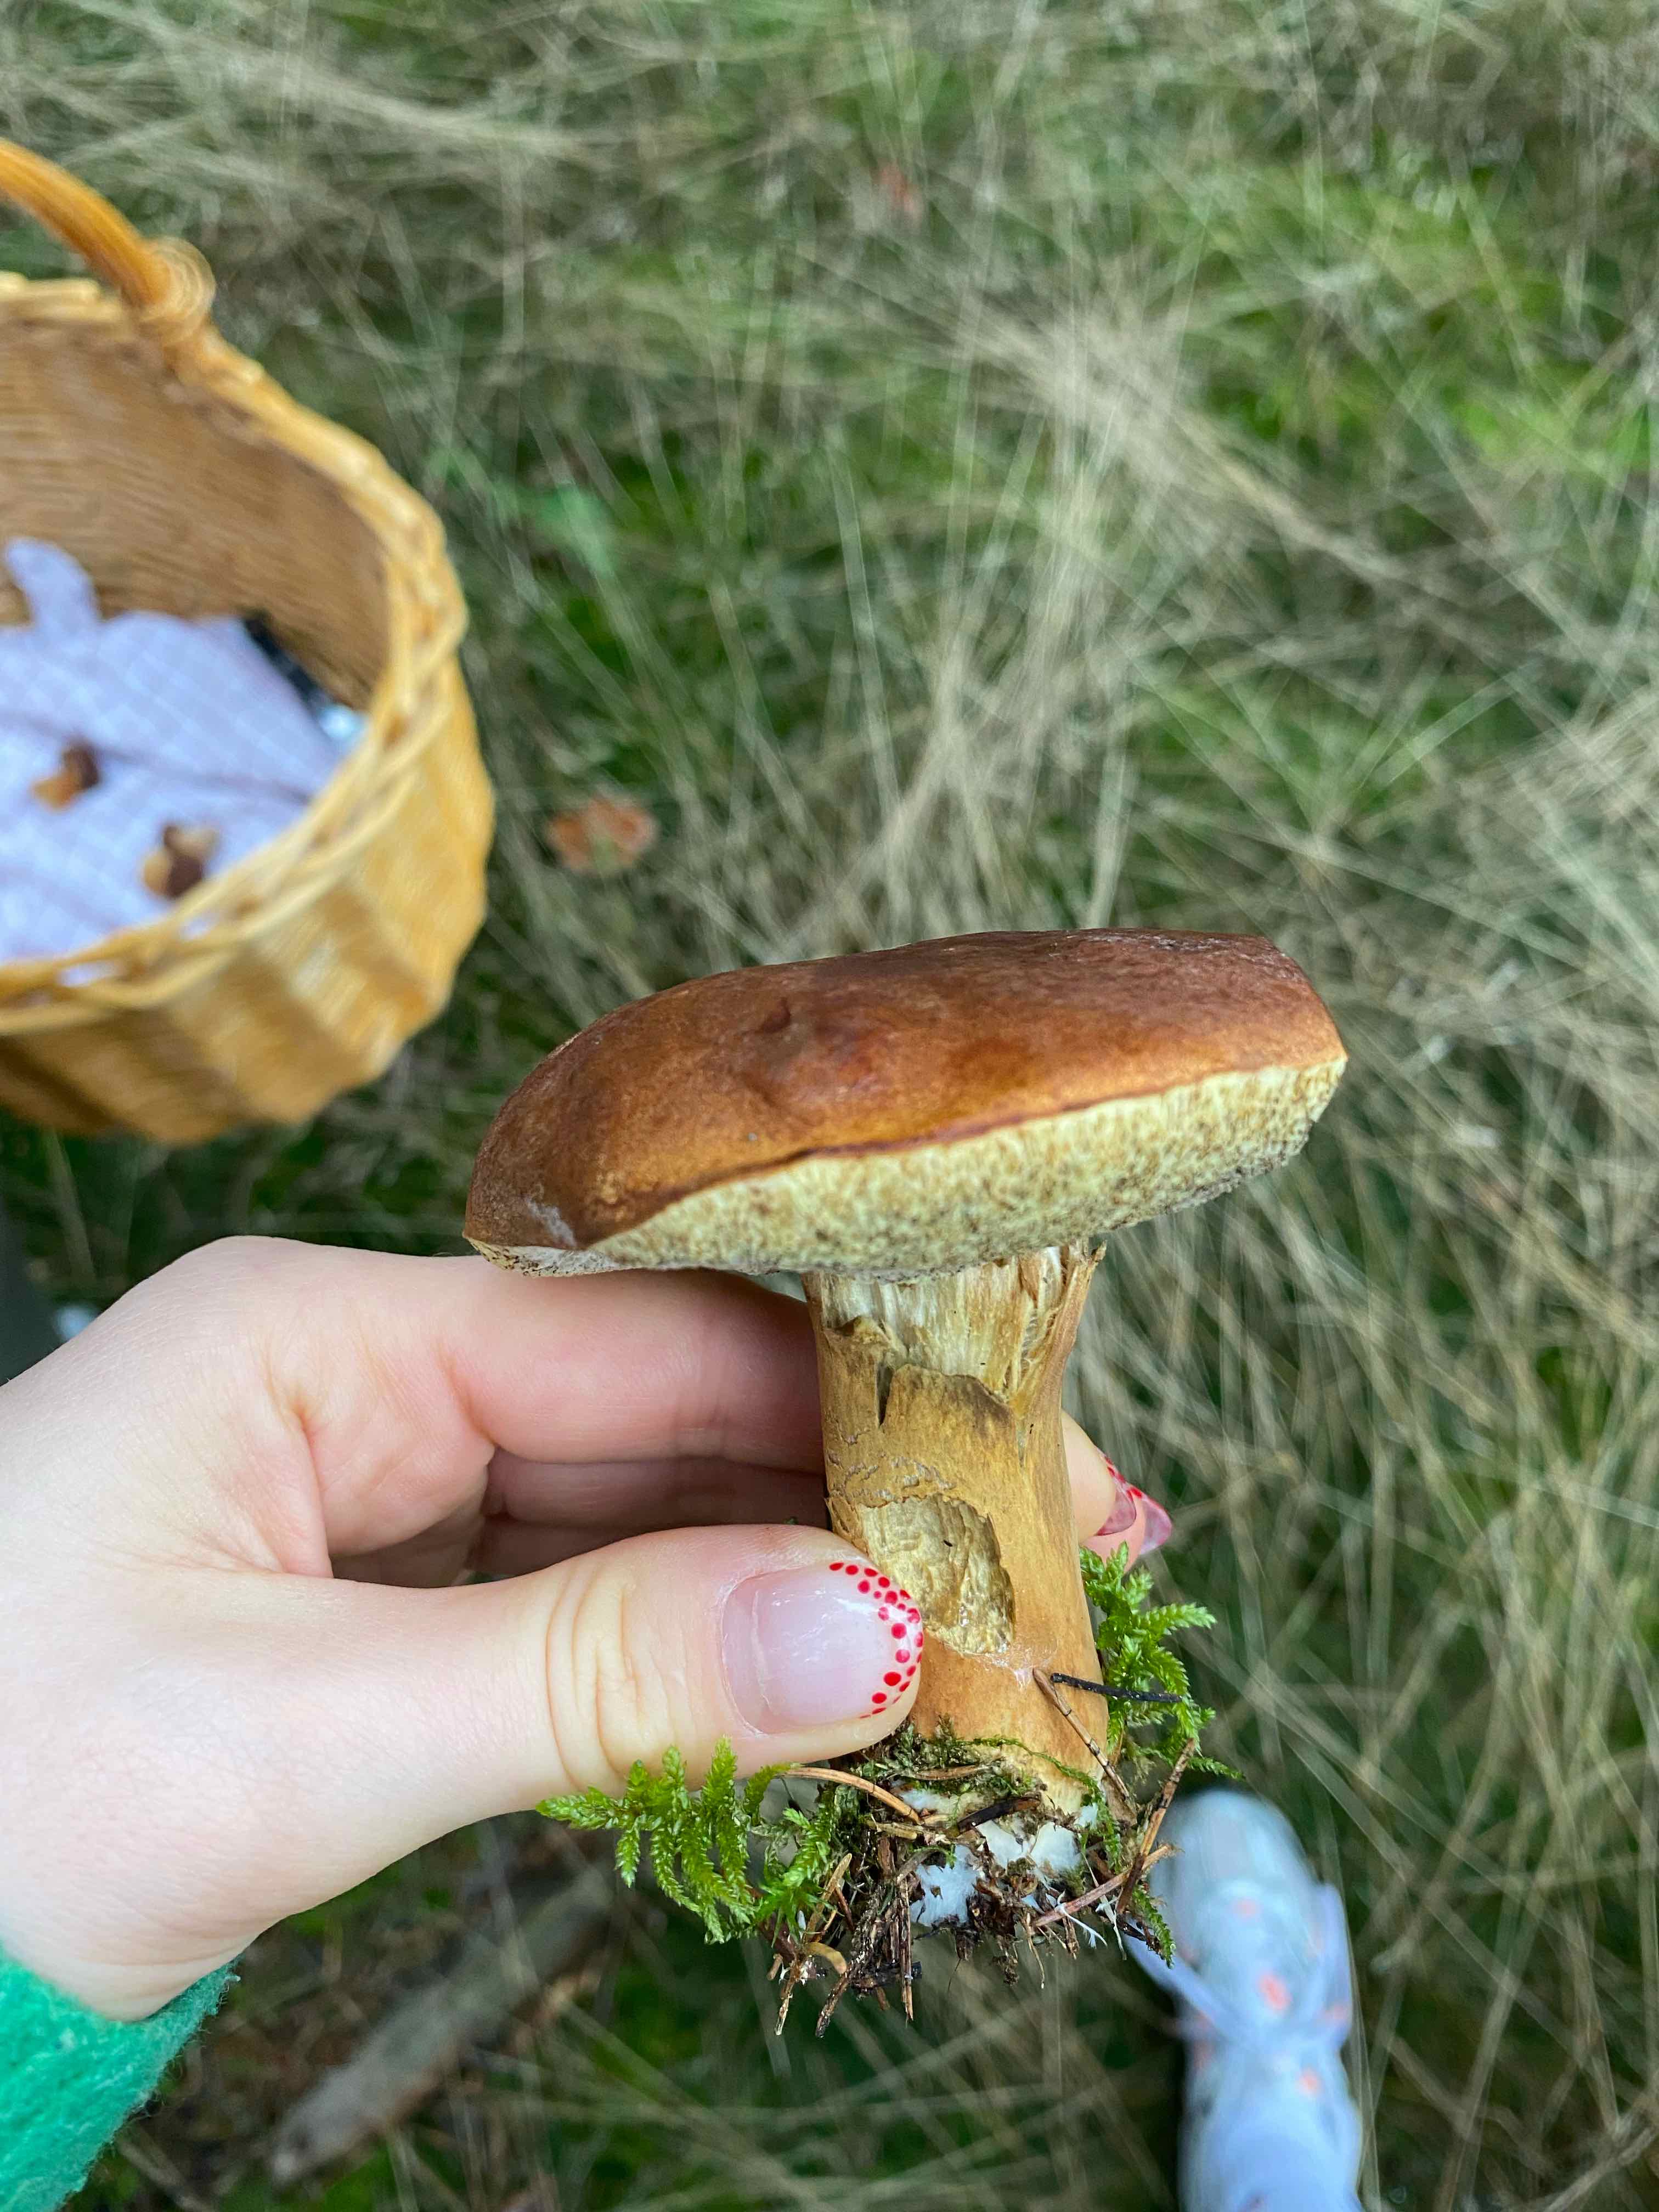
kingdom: Fungi
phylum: Basidiomycota
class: Agaricomycetes
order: Boletales
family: Boletaceae
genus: Imleria
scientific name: Imleria badia
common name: brunstokket rørhat
